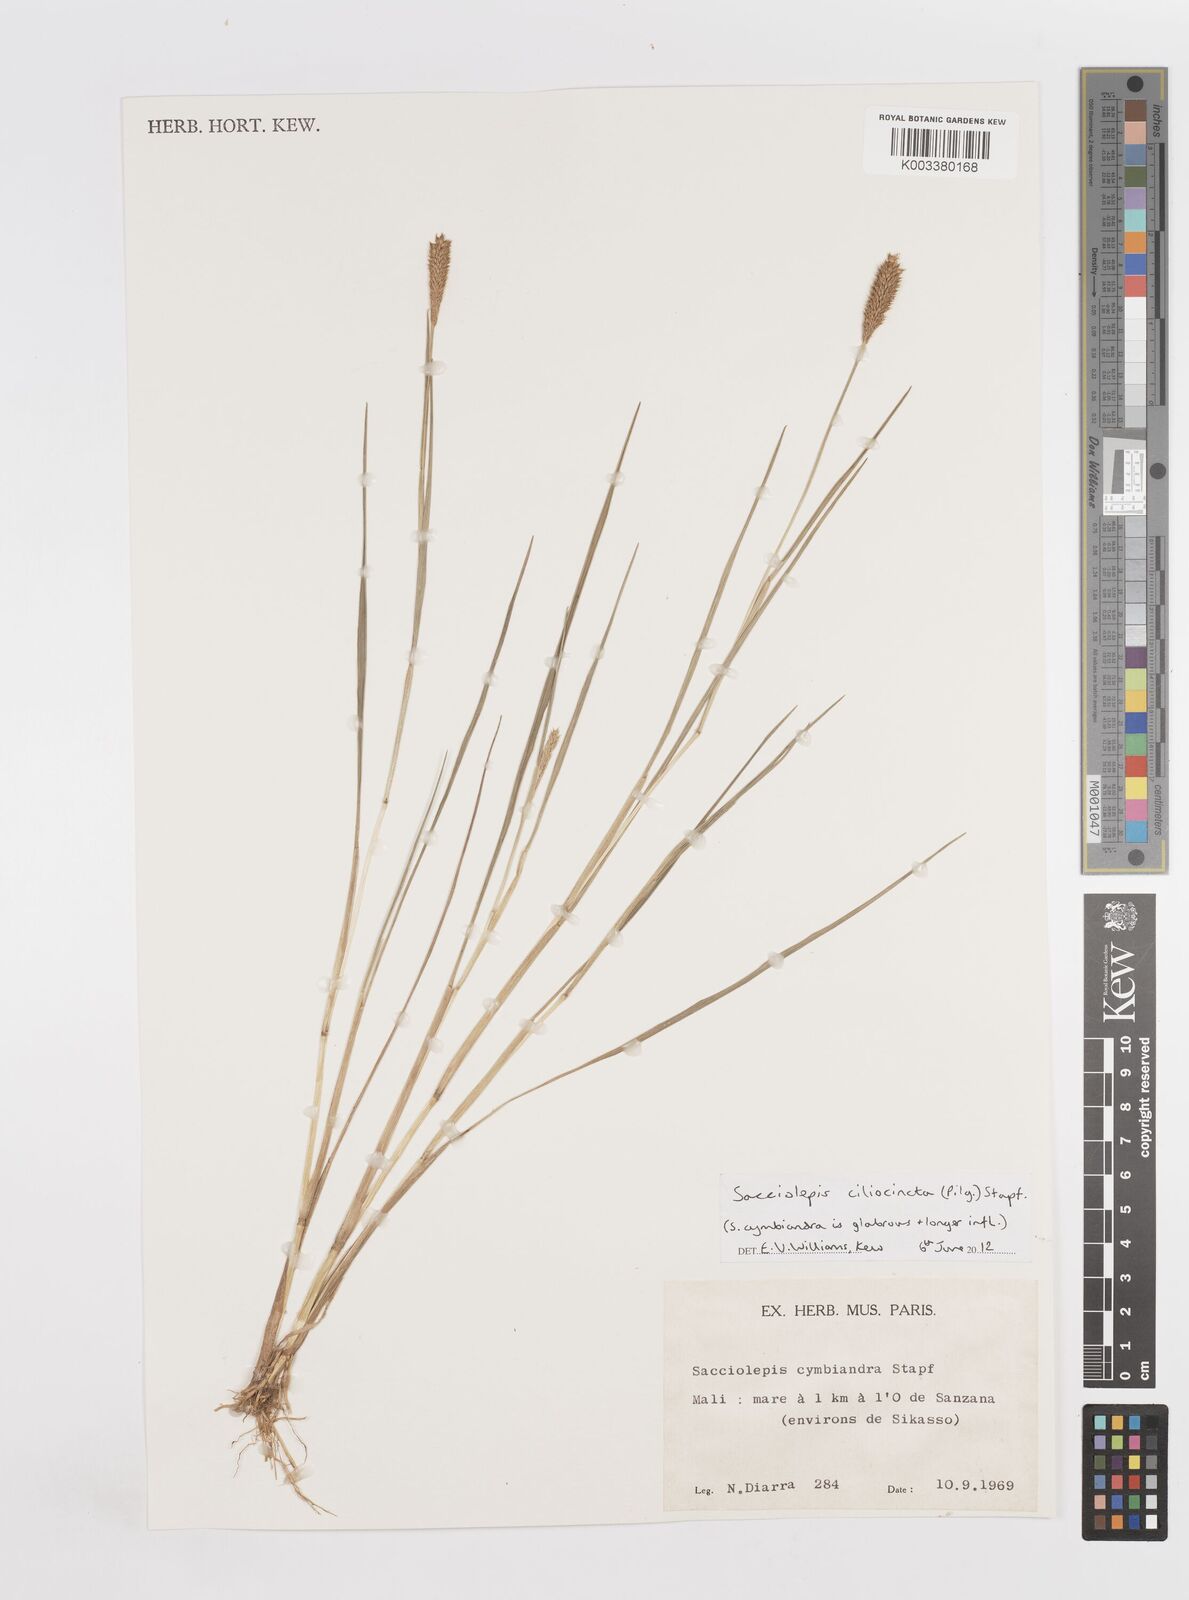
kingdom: Plantae
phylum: Tracheophyta
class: Liliopsida
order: Poales
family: Poaceae
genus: Sacciolepis
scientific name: Sacciolepis ciliocincta
